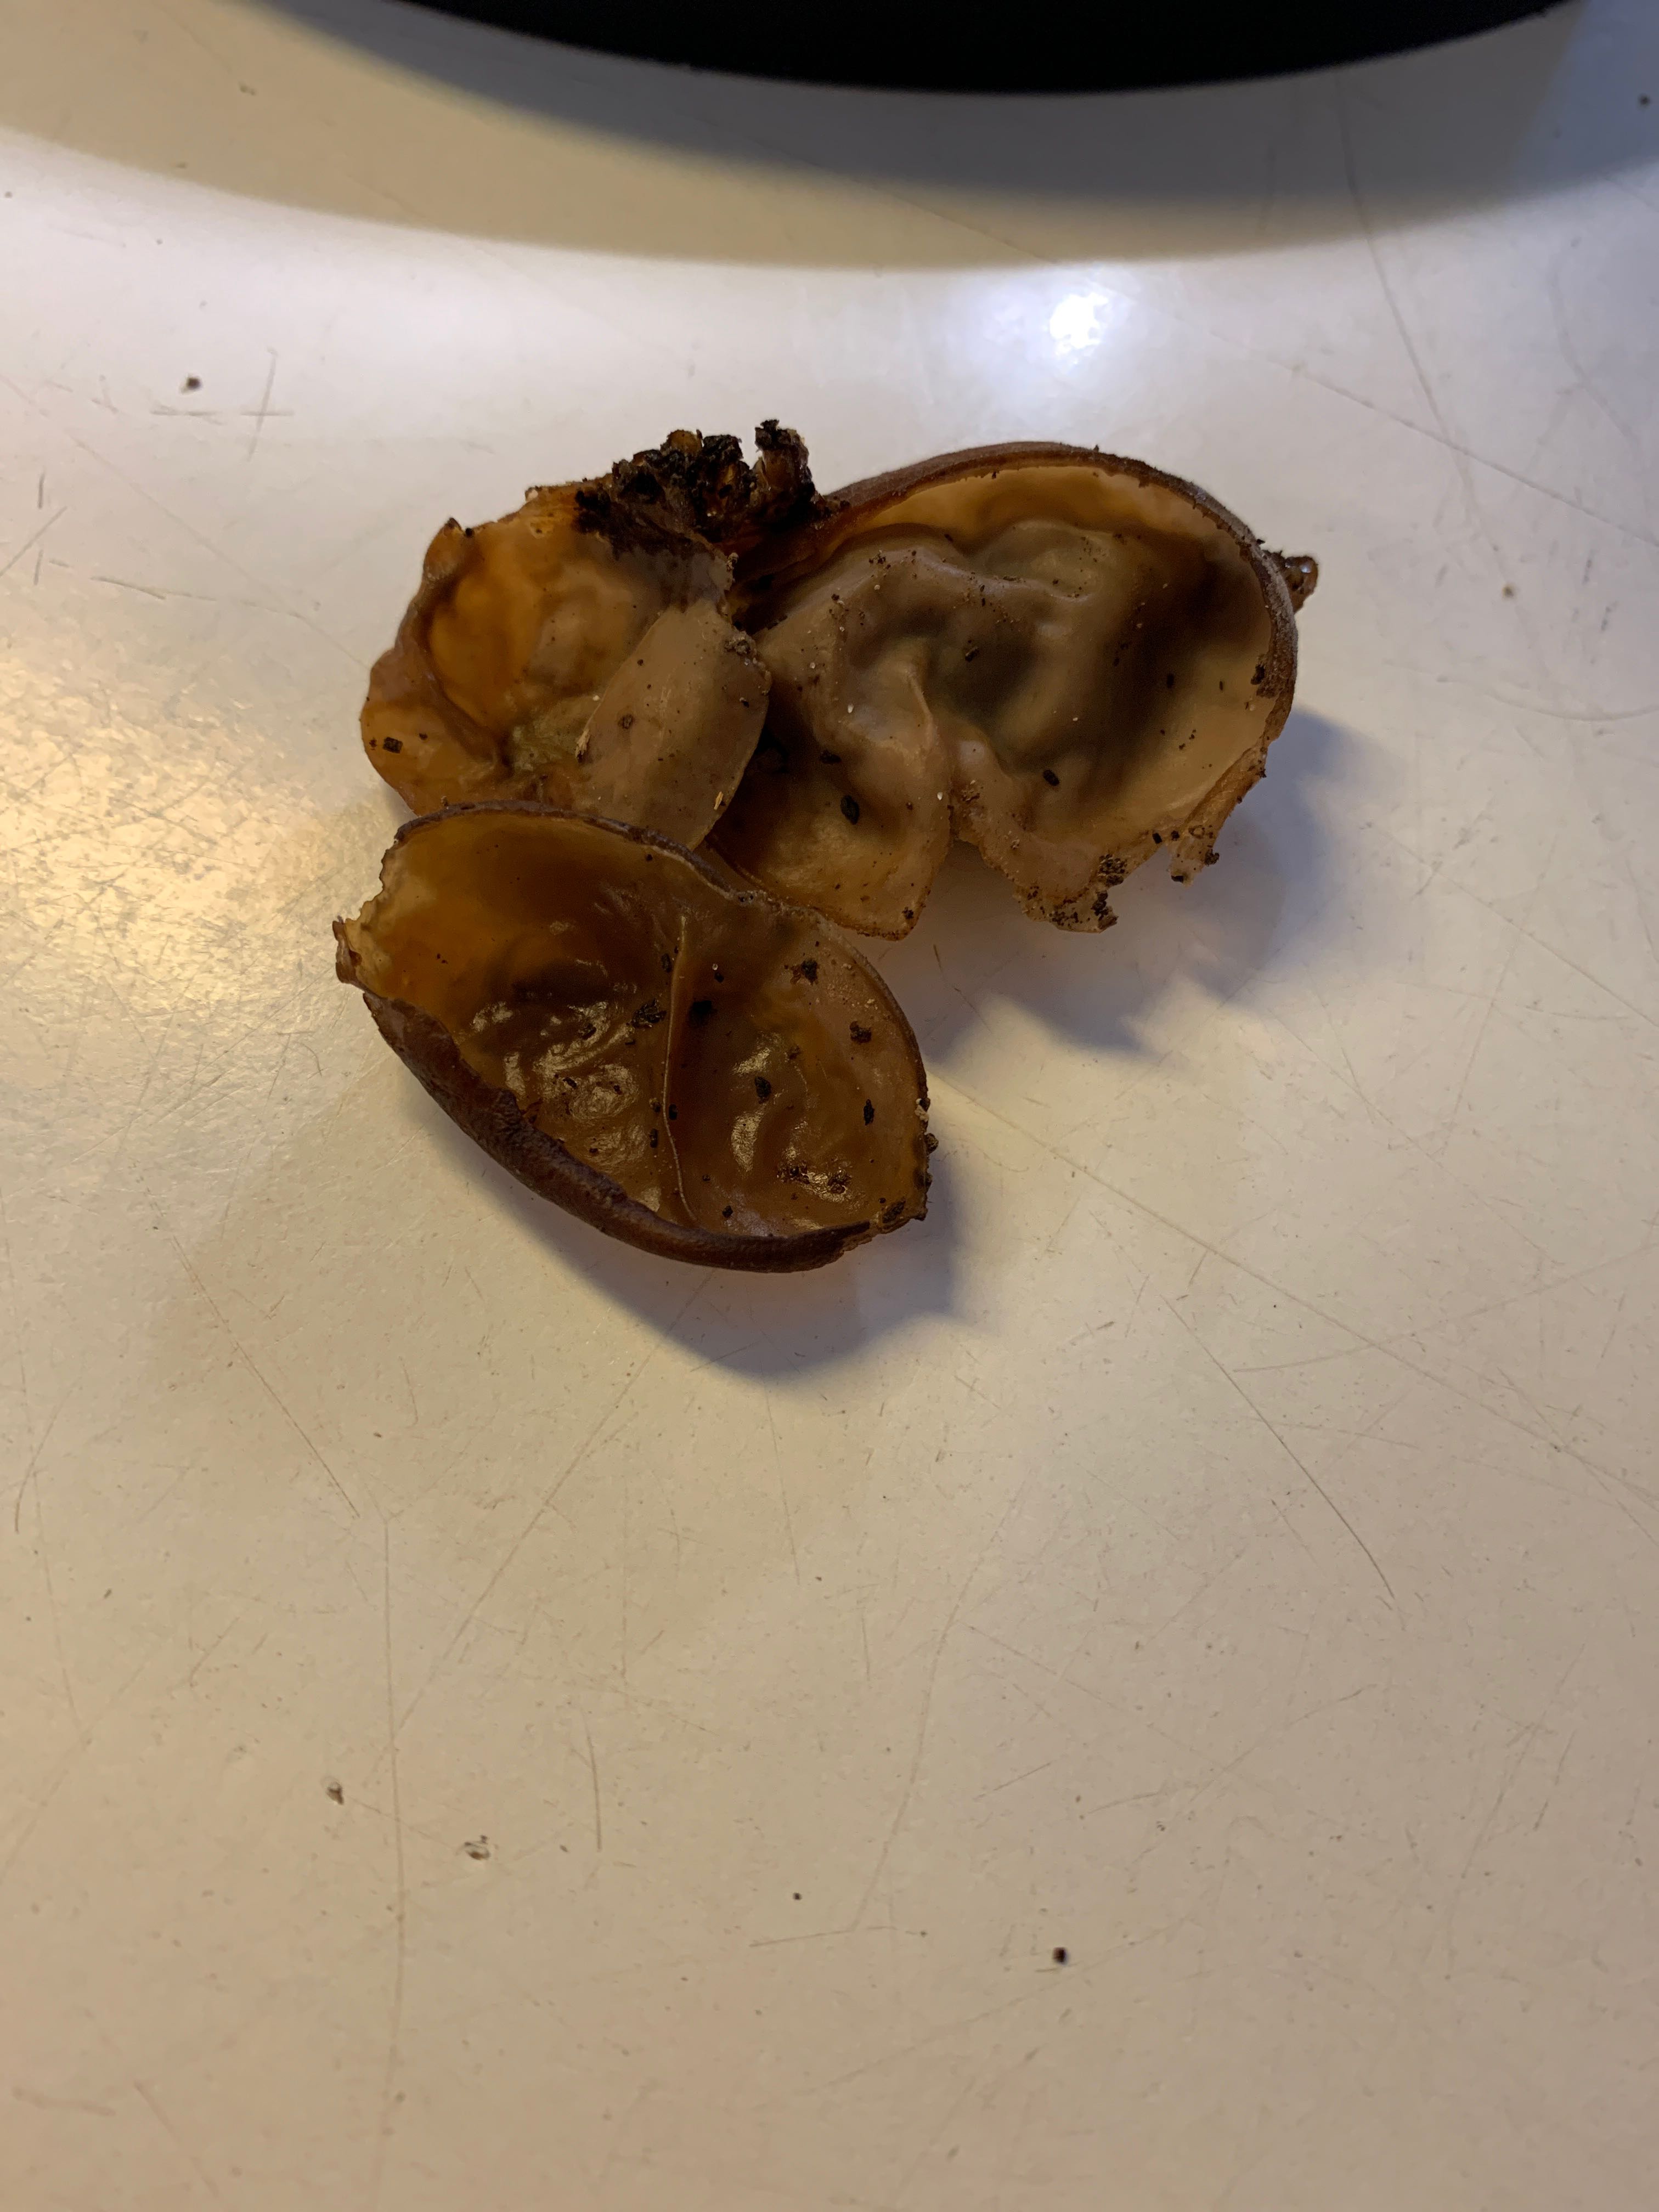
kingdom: Fungi
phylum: Basidiomycota
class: Agaricomycetes
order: Auriculariales
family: Auriculariaceae
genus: Auricularia
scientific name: Auricularia auricula-judae
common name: almindelig judasøre
